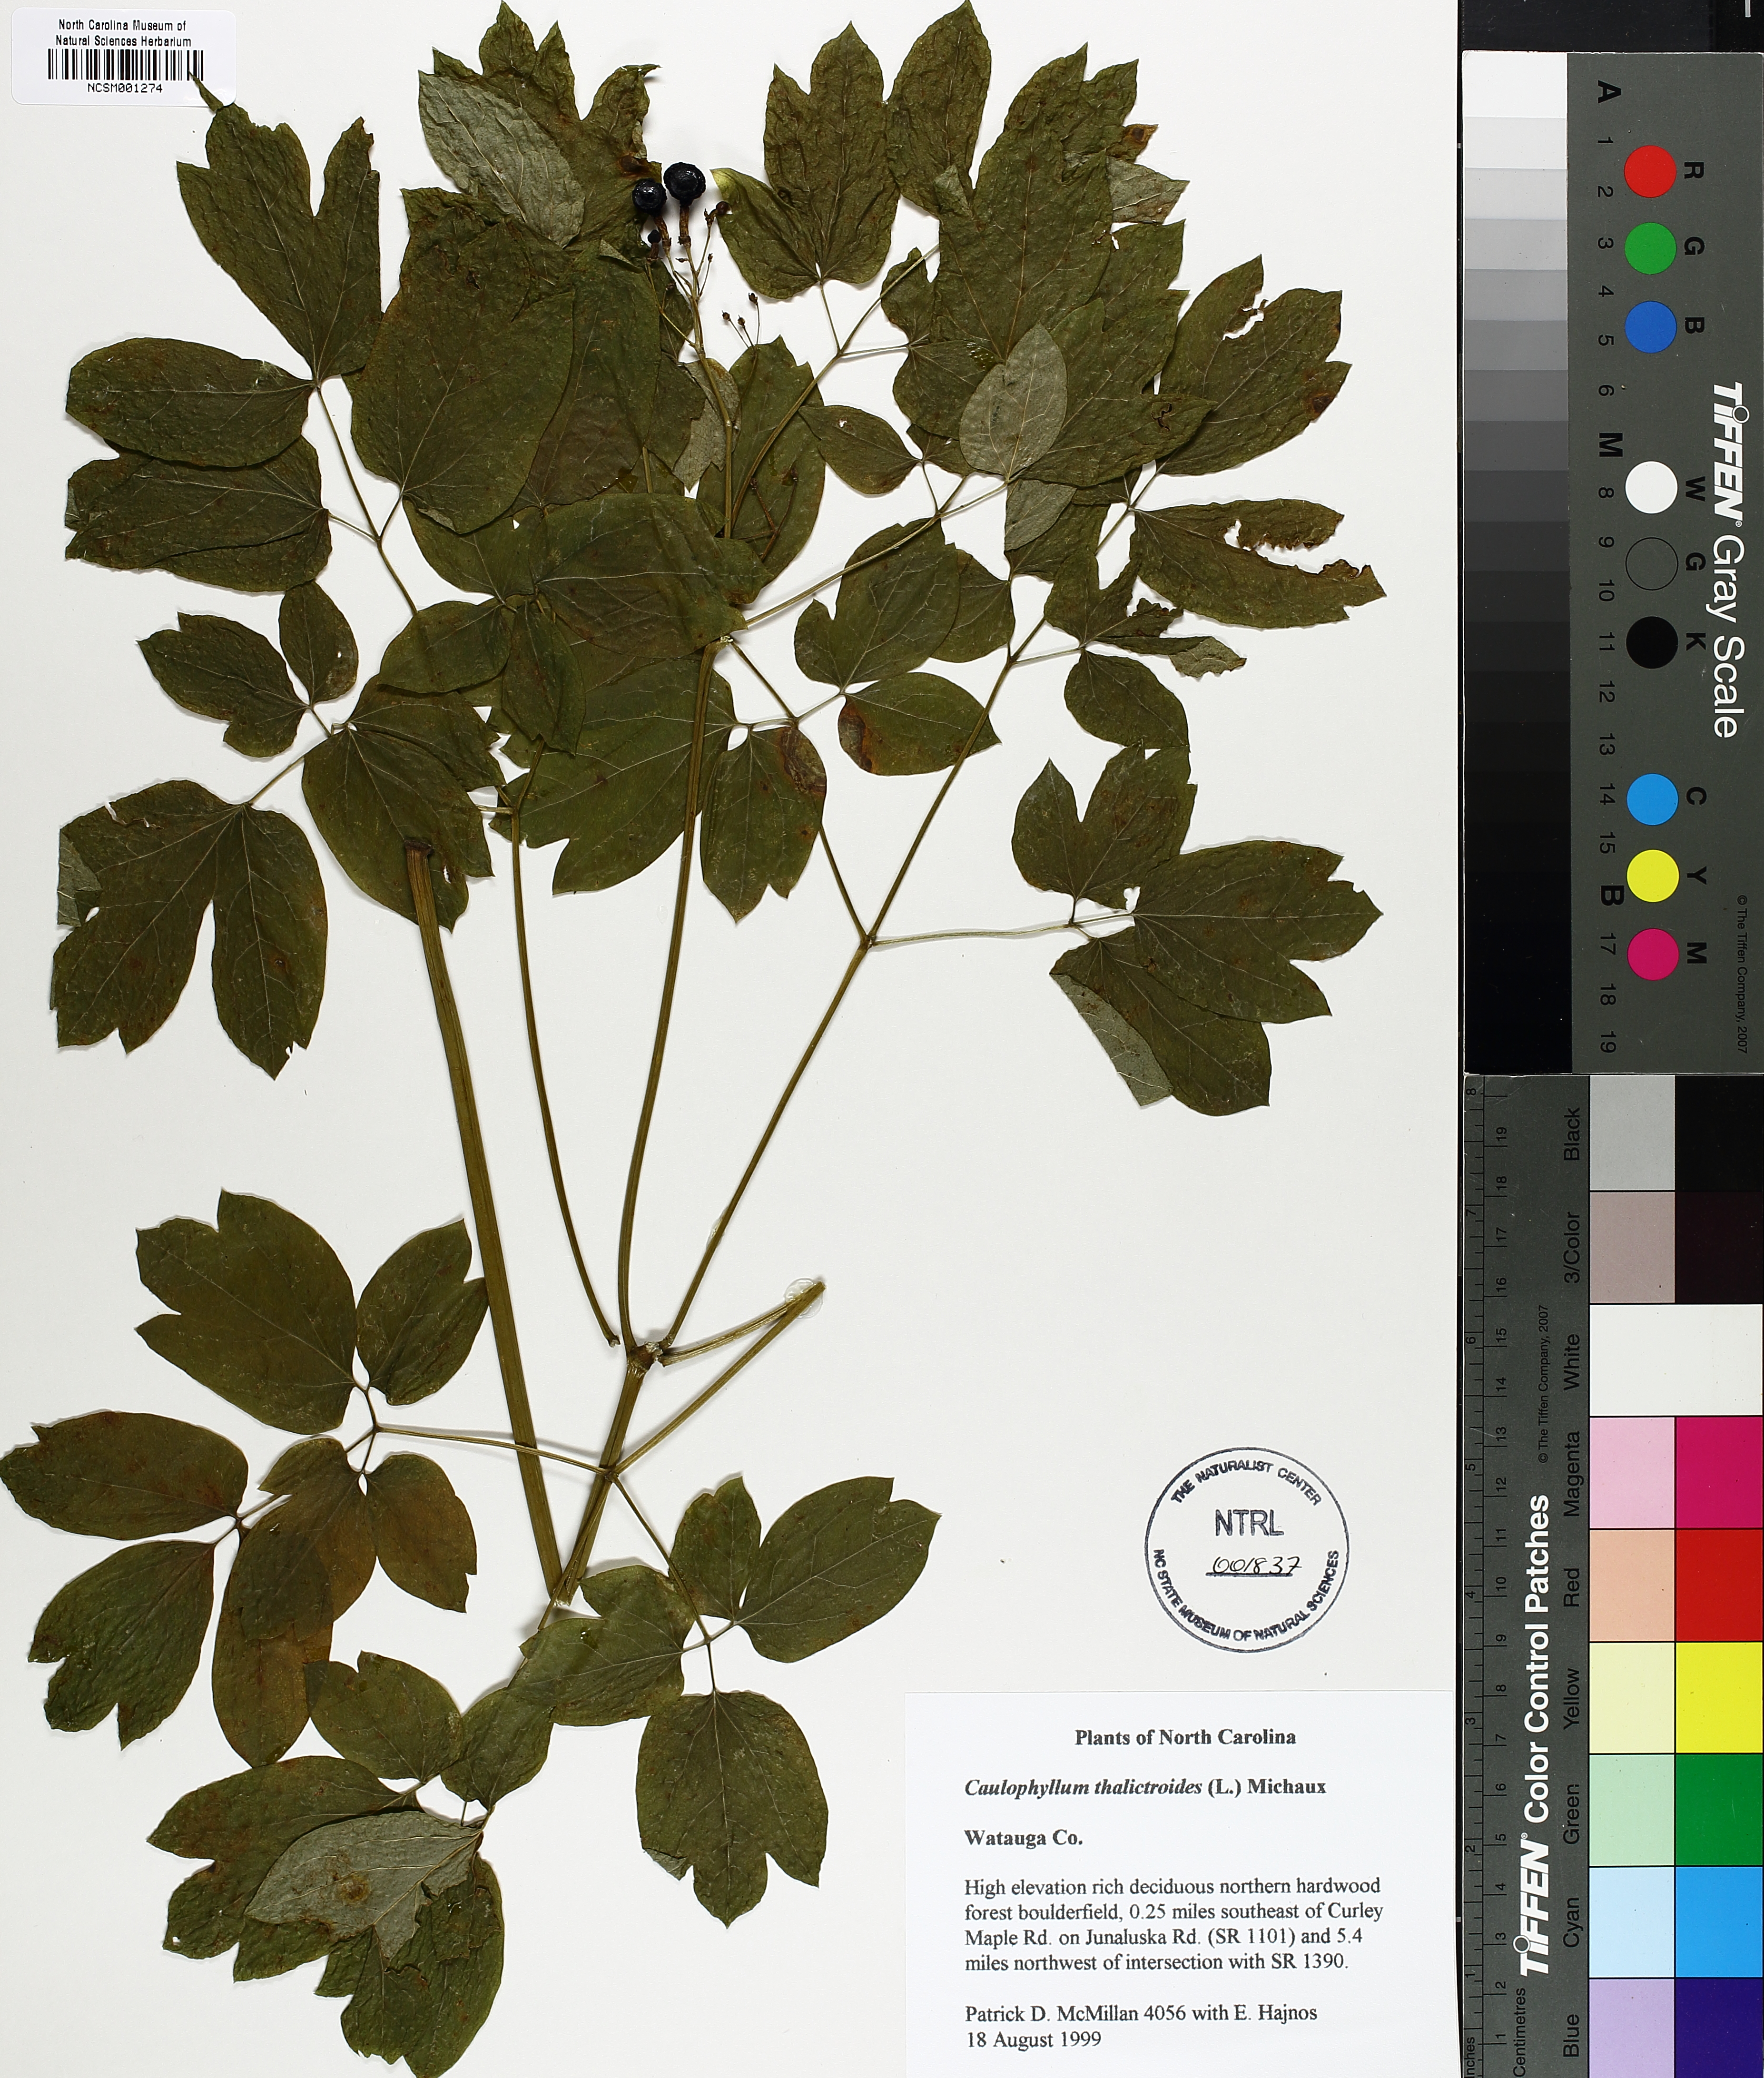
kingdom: Plantae
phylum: Tracheophyta
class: Magnoliopsida
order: Ranunculales
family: Berberidaceae
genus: Caulophyllum
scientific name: Caulophyllum thalictroides
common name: Blue cohosh
